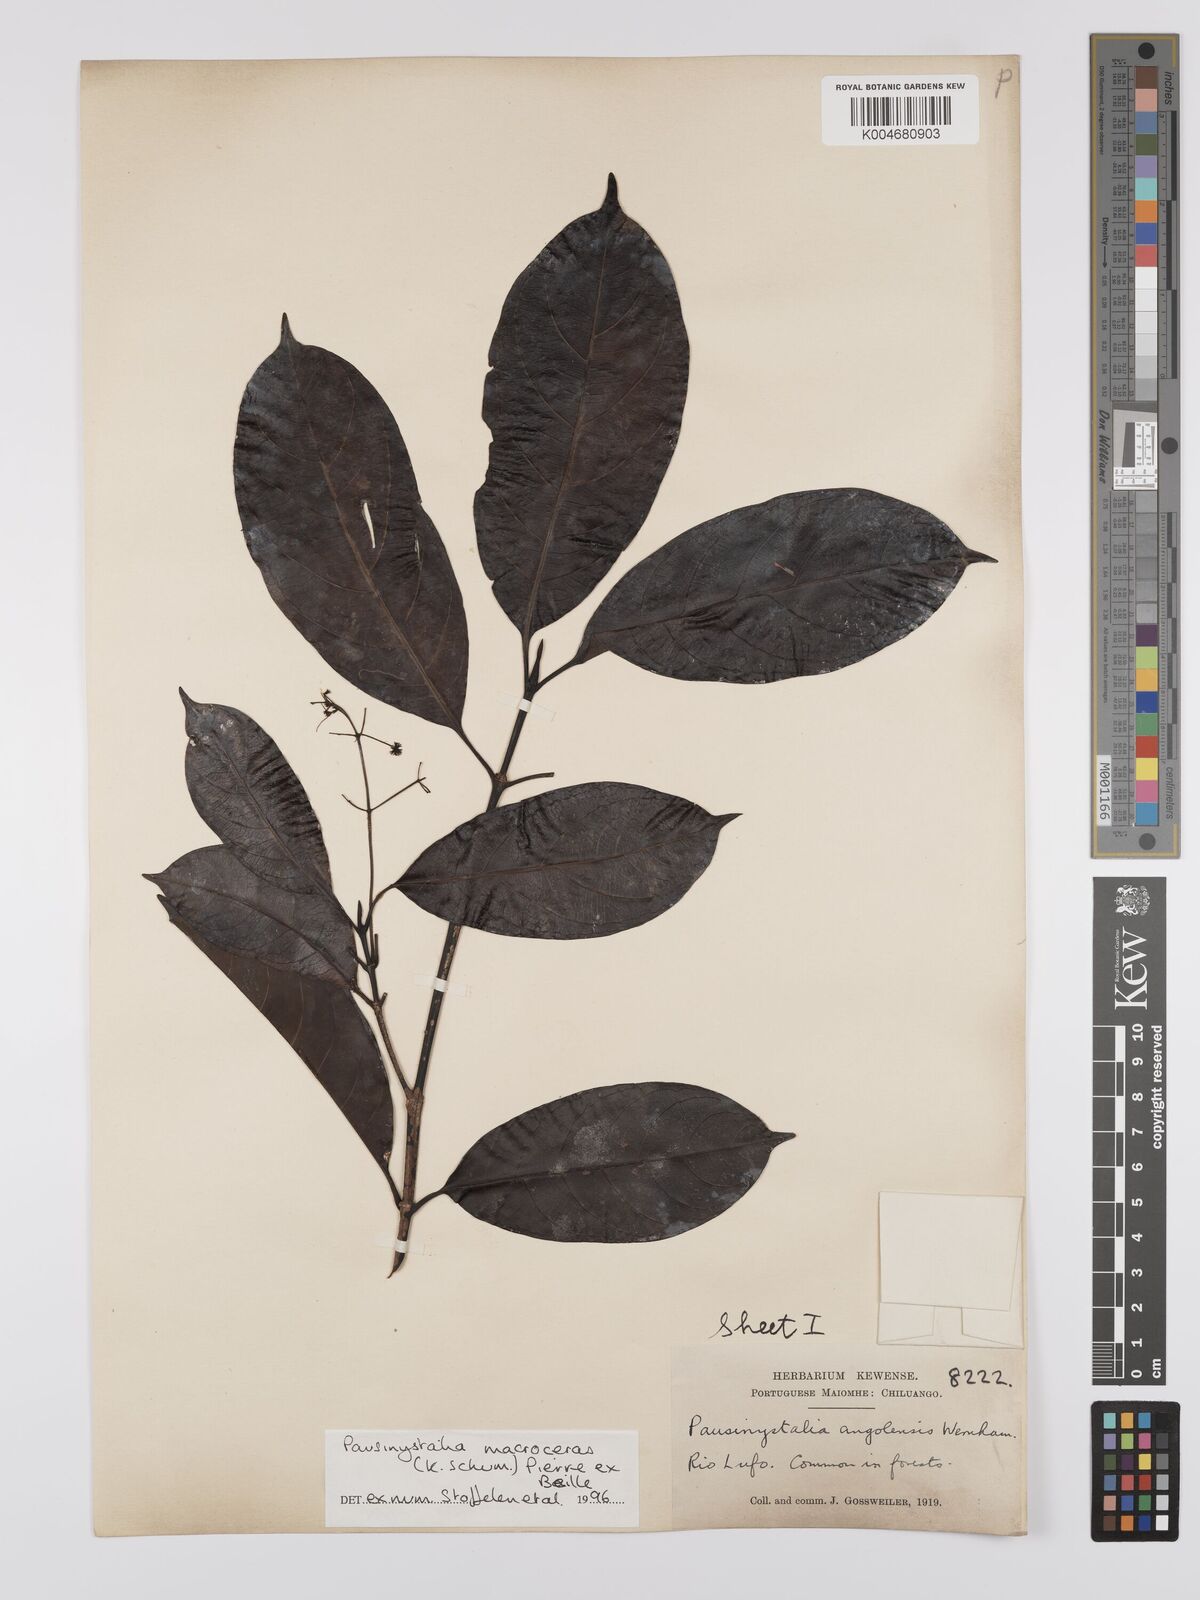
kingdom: Plantae
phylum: Tracheophyta
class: Magnoliopsida
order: Gentianales
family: Rubiaceae
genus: Corynanthe
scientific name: Corynanthe macroceras
